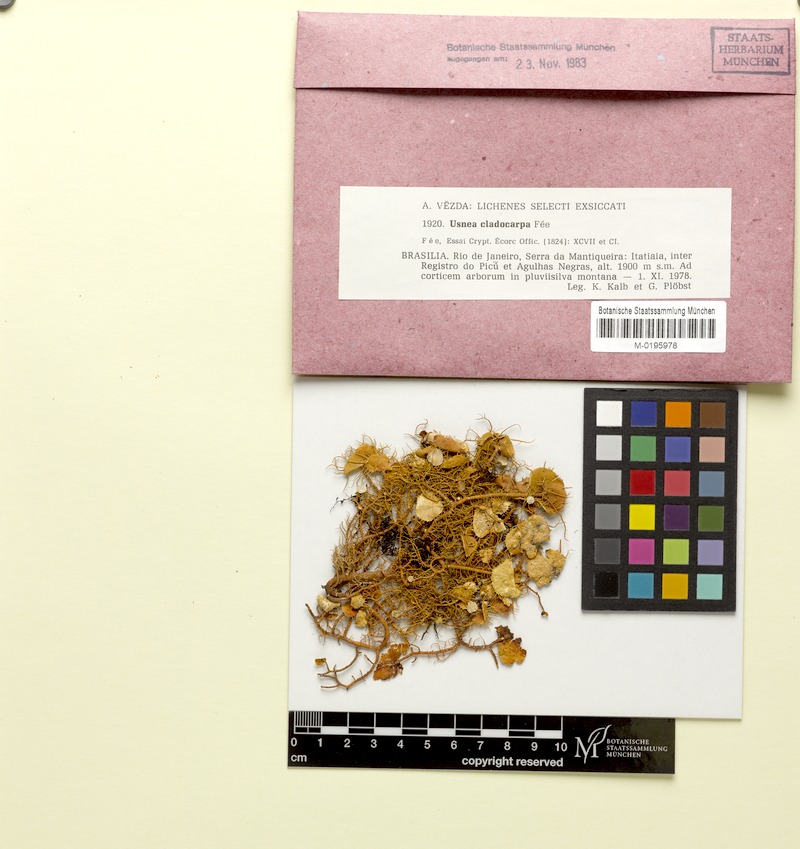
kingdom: Fungi
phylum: Ascomycota
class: Lecanoromycetes
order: Lecanorales
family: Parmeliaceae
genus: Usnea
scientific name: Usnea cladocarpa
